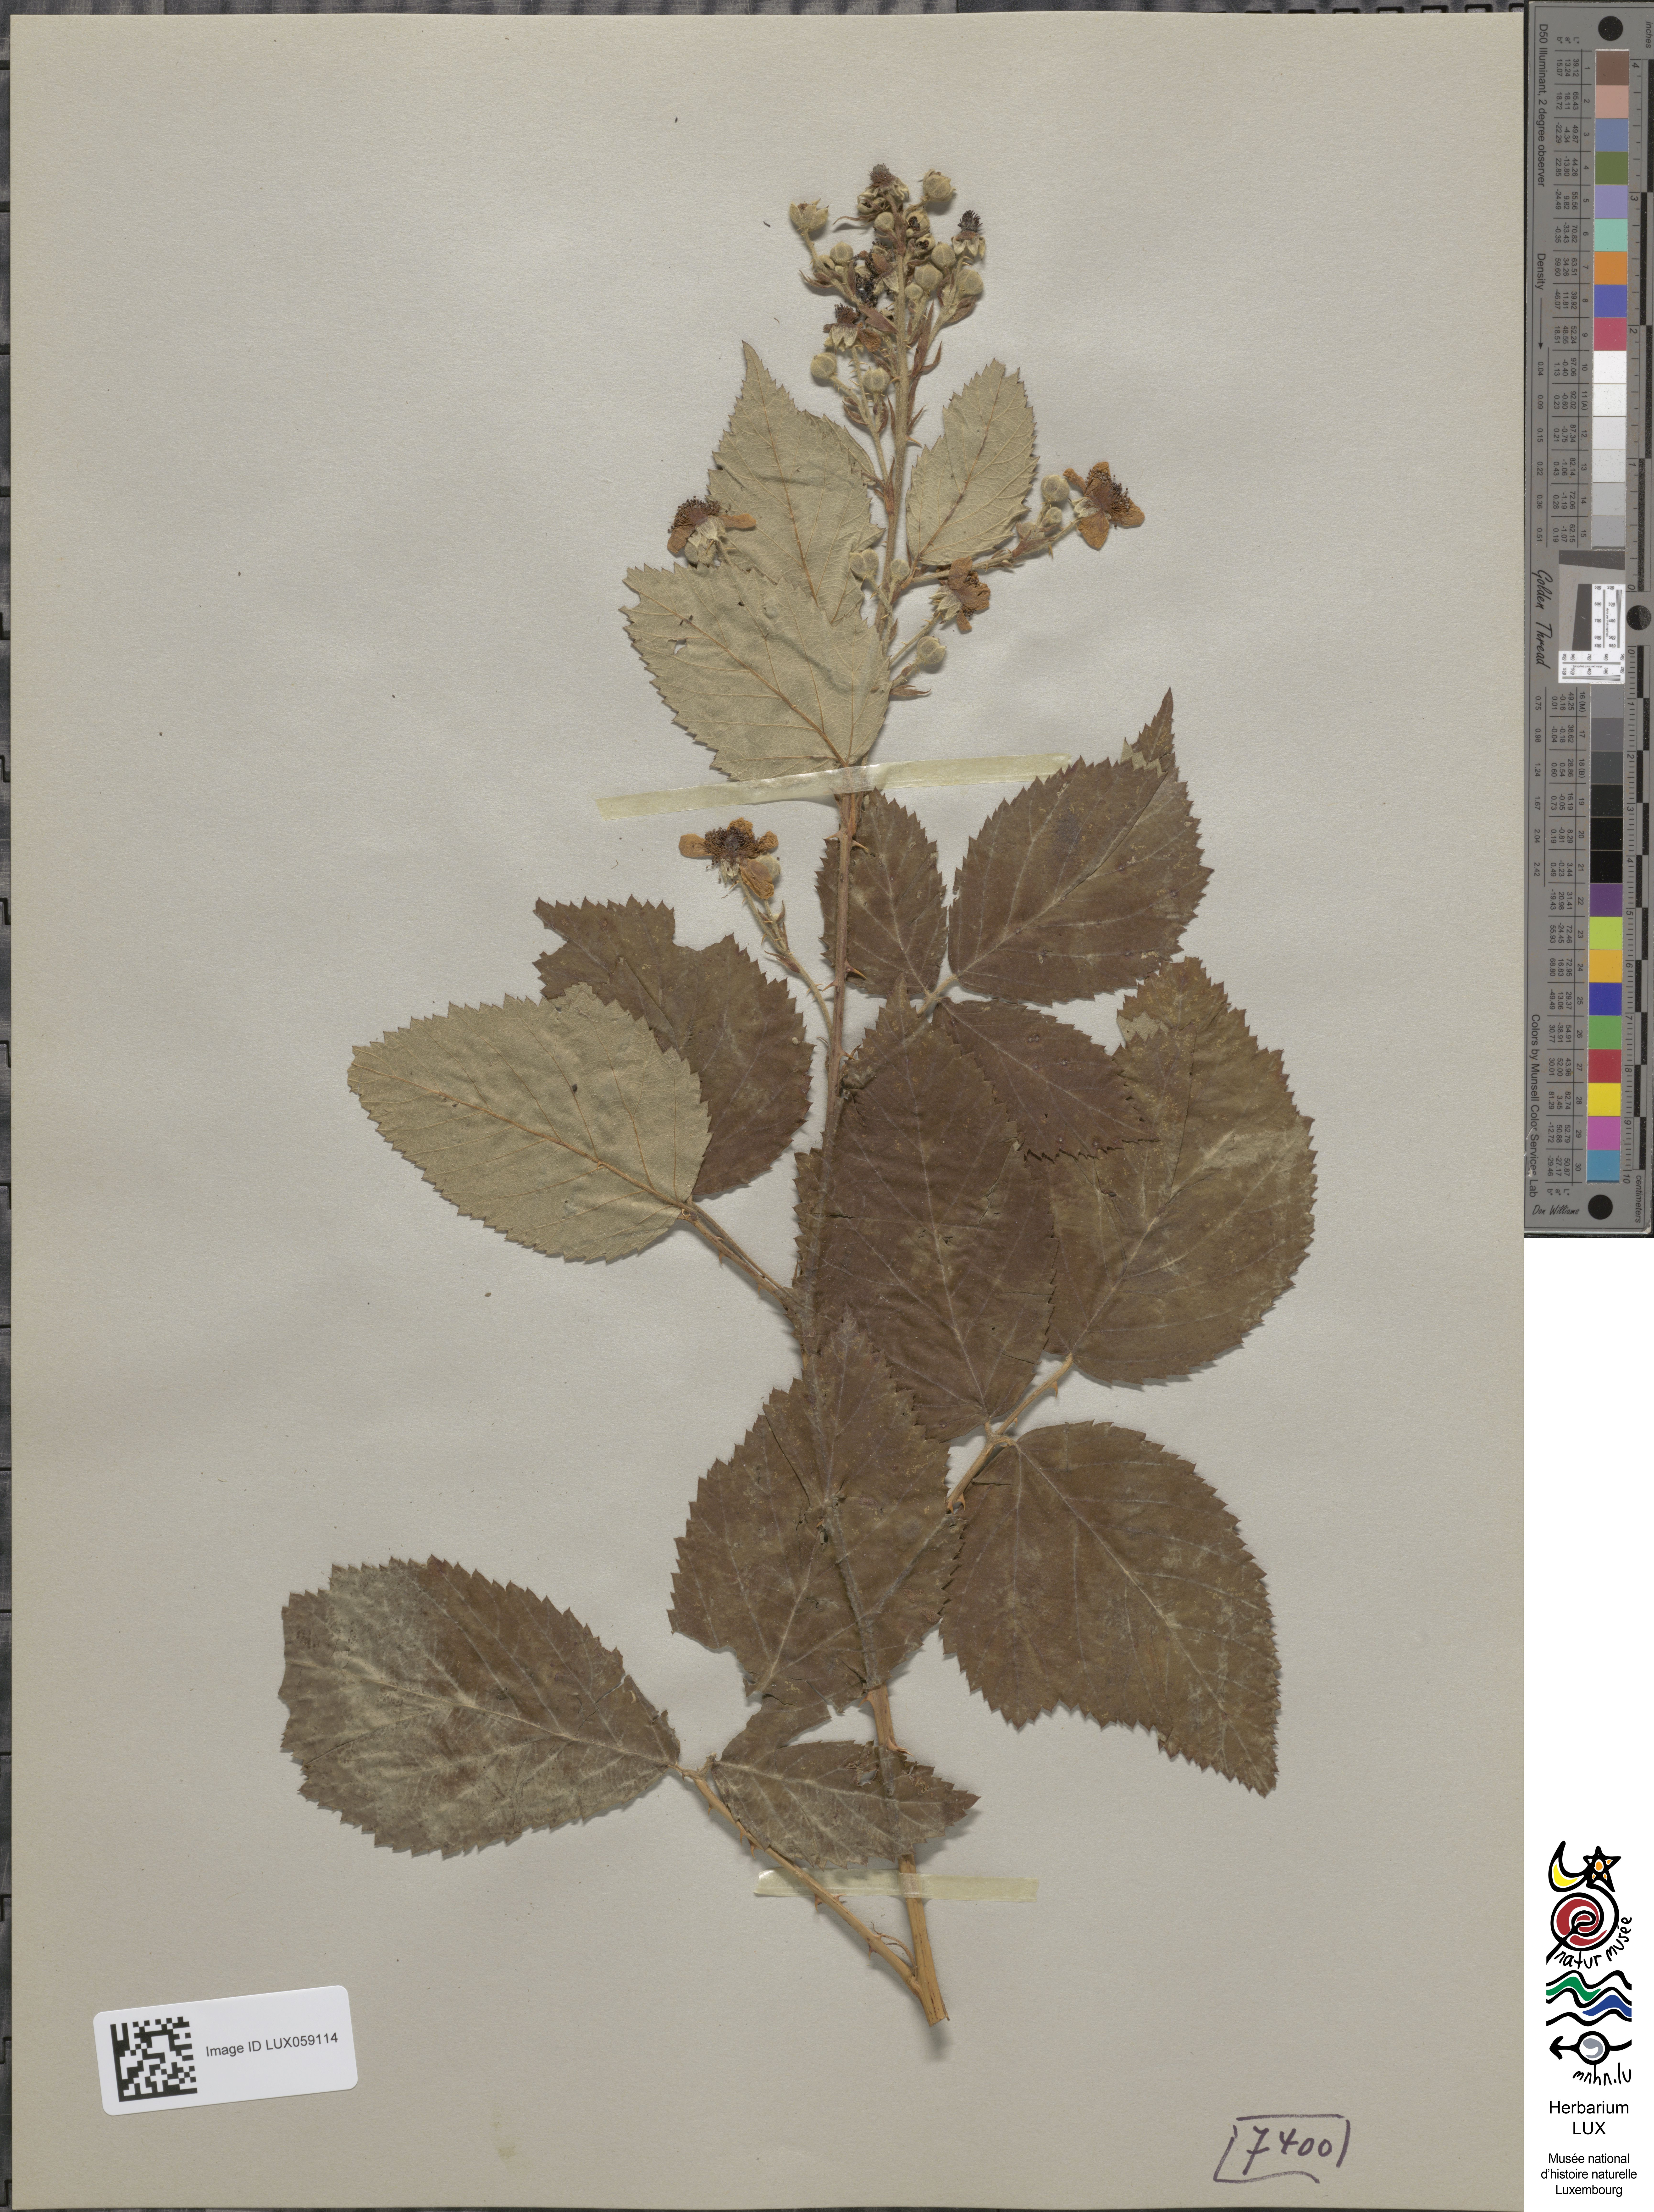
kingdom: Plantae
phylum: Tracheophyta
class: Magnoliopsida
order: Rosales
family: Rosaceae
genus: Rubus
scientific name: Rubus silesiacus
